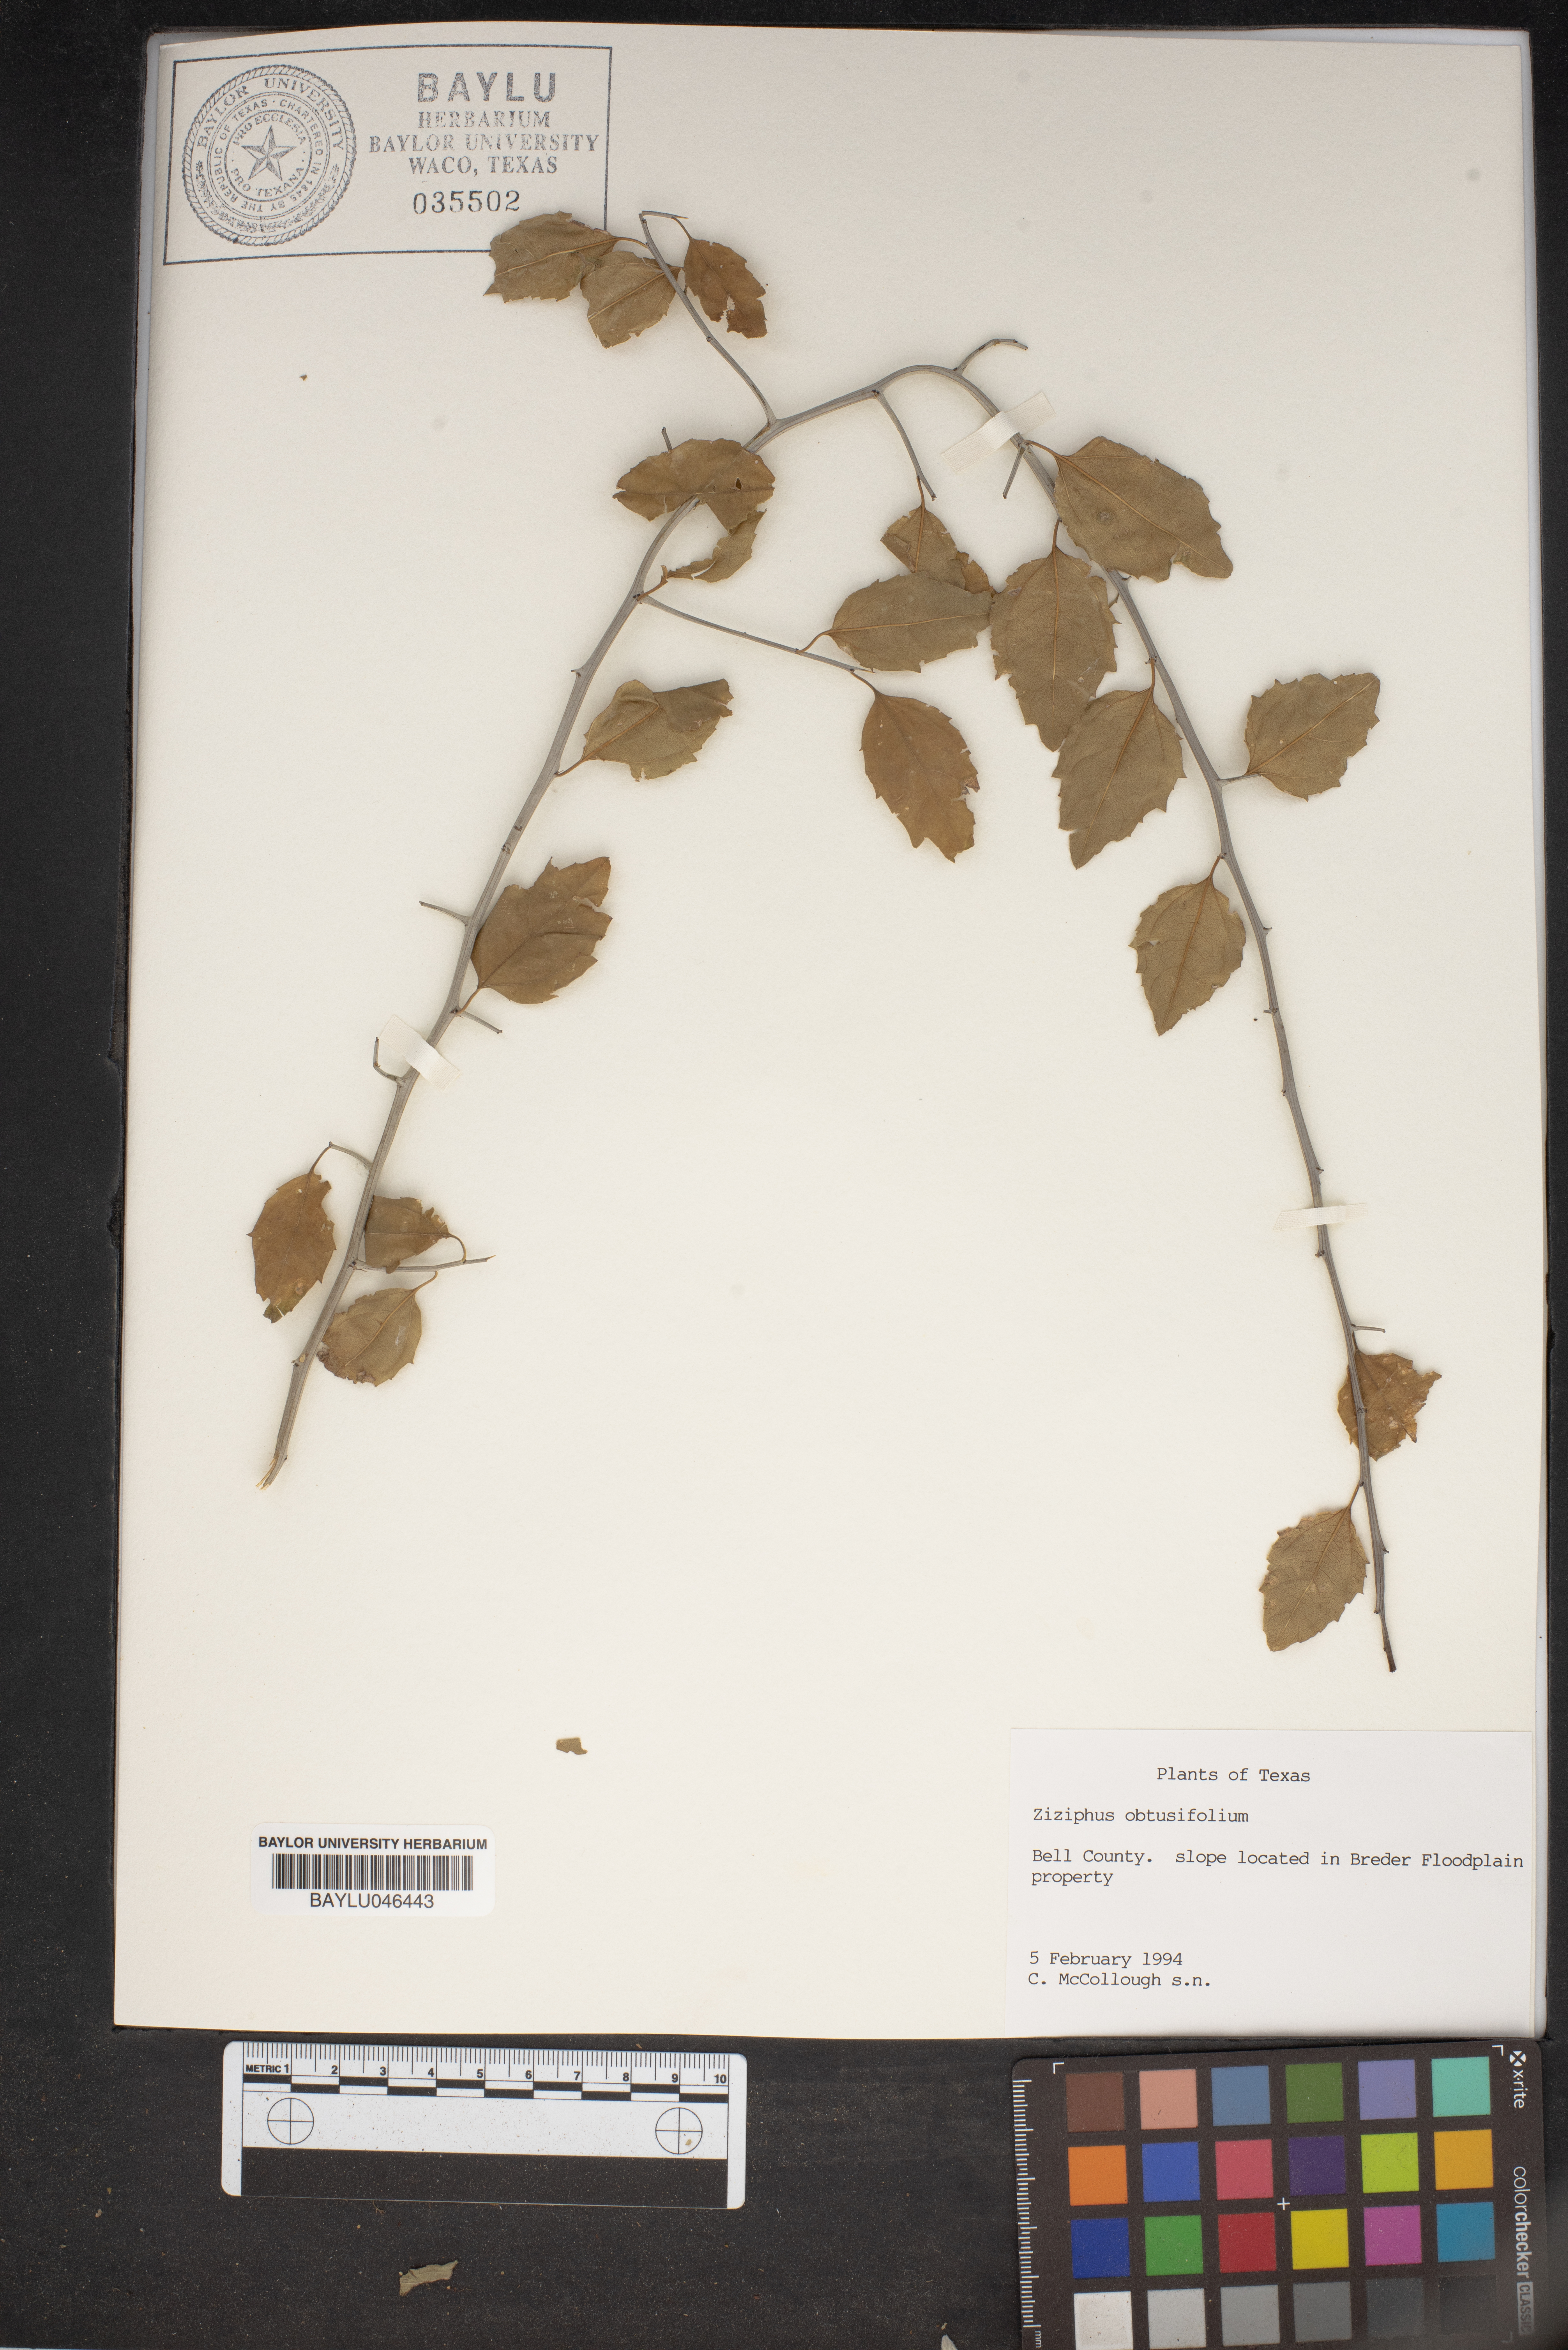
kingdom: Plantae
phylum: Tracheophyta
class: Magnoliopsida
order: Rosales
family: Rhamnaceae
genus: Sarcomphalus
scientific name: Sarcomphalus obtusifolius
